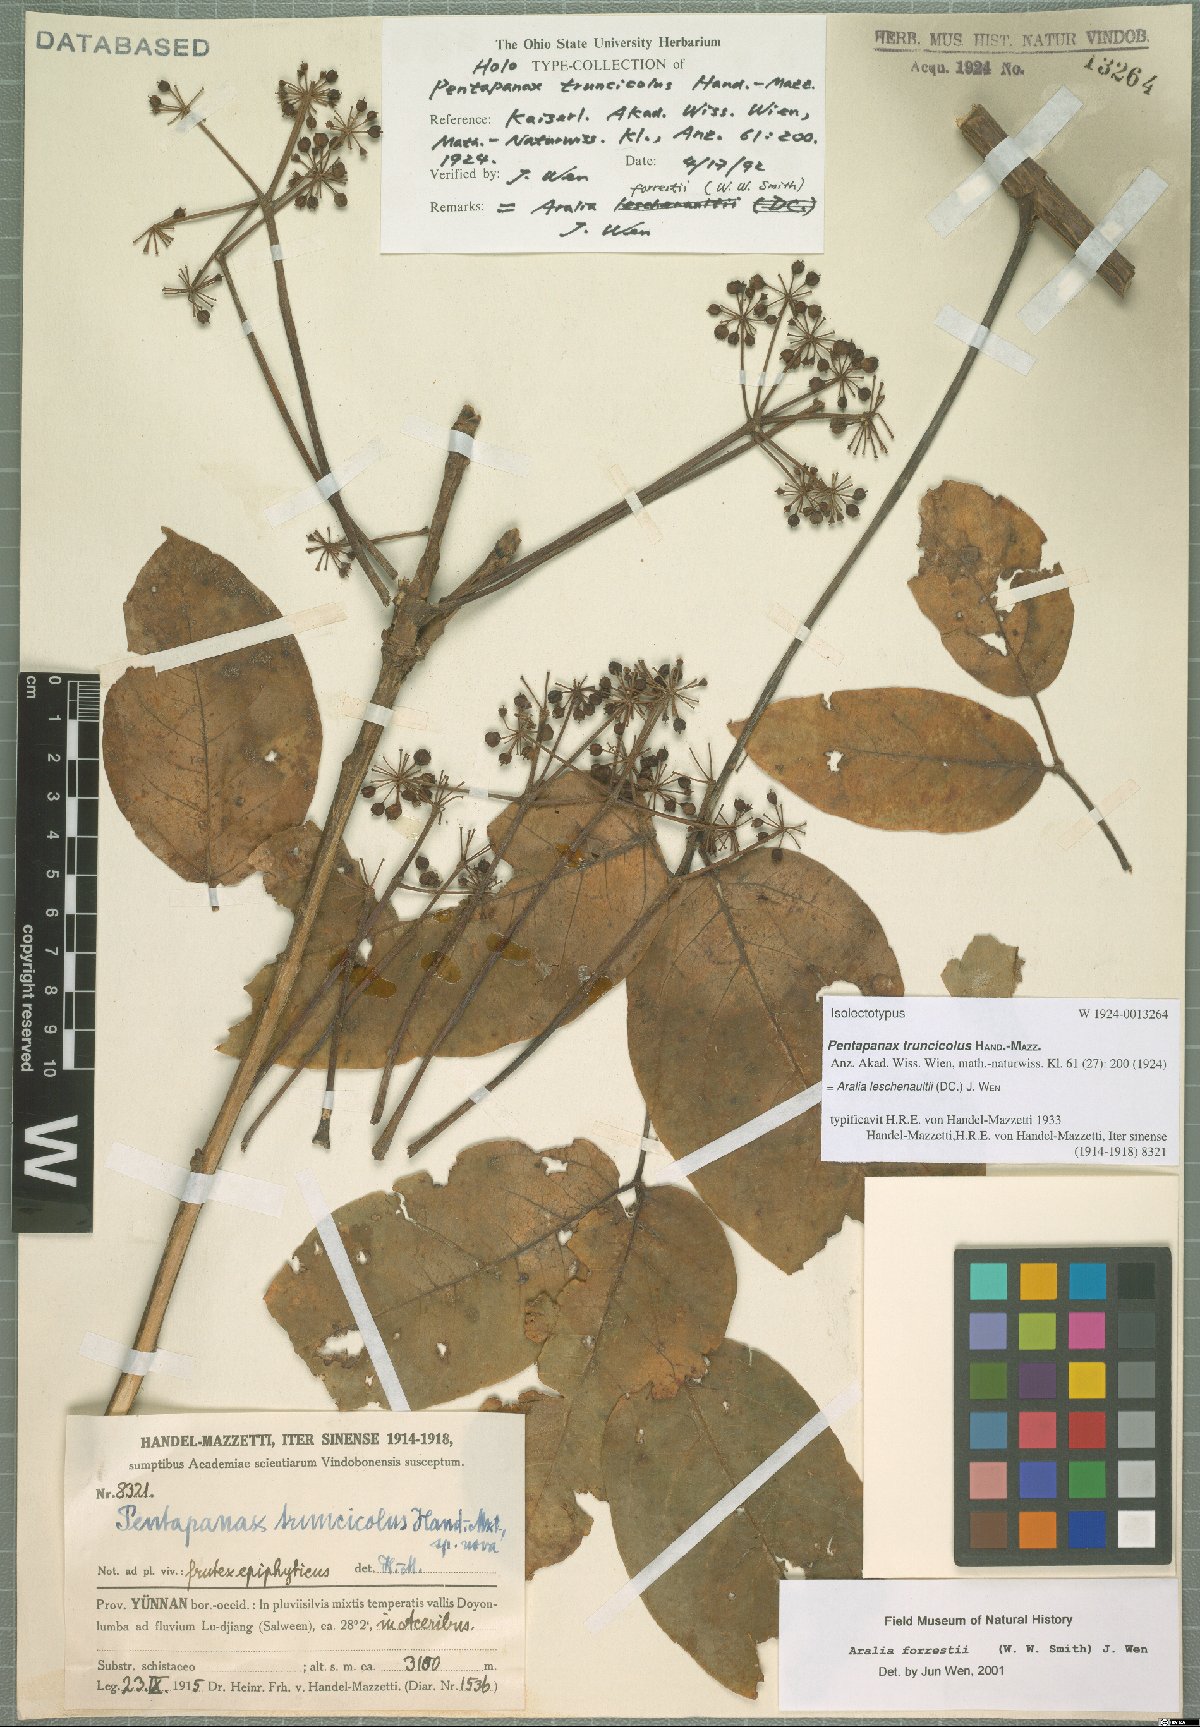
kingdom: Plantae
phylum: Tracheophyta
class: Magnoliopsida
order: Apiales
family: Araliaceae
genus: Aralia
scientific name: Aralia leschenaultii
